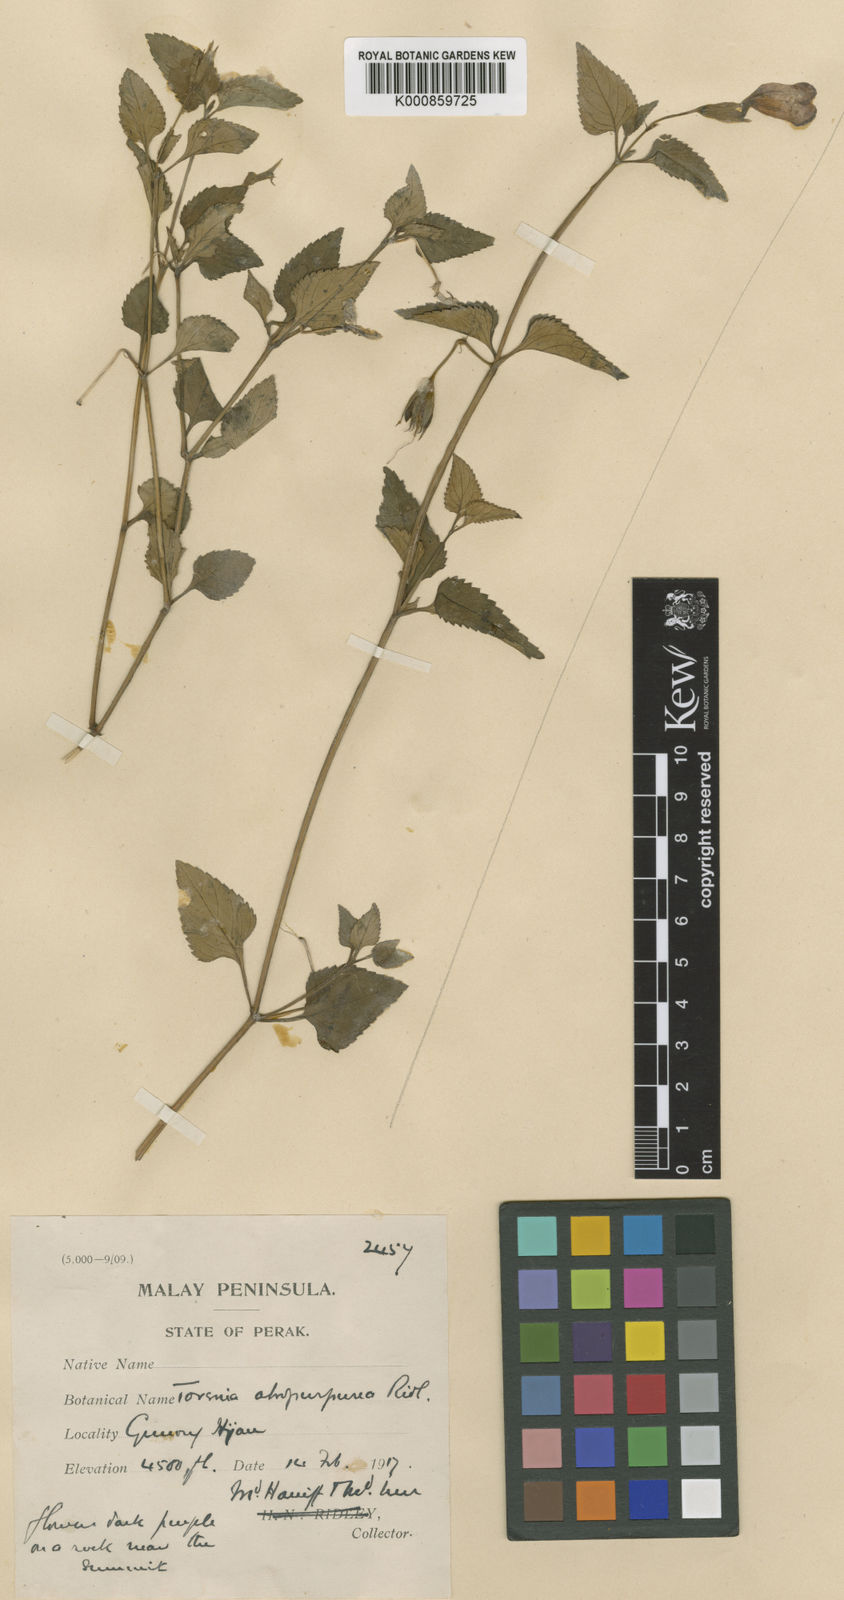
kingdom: Plantae
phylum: Tracheophyta
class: Magnoliopsida
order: Lamiales
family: Linderniaceae
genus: Schizotorenia
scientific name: Schizotorenia atropurpurea
